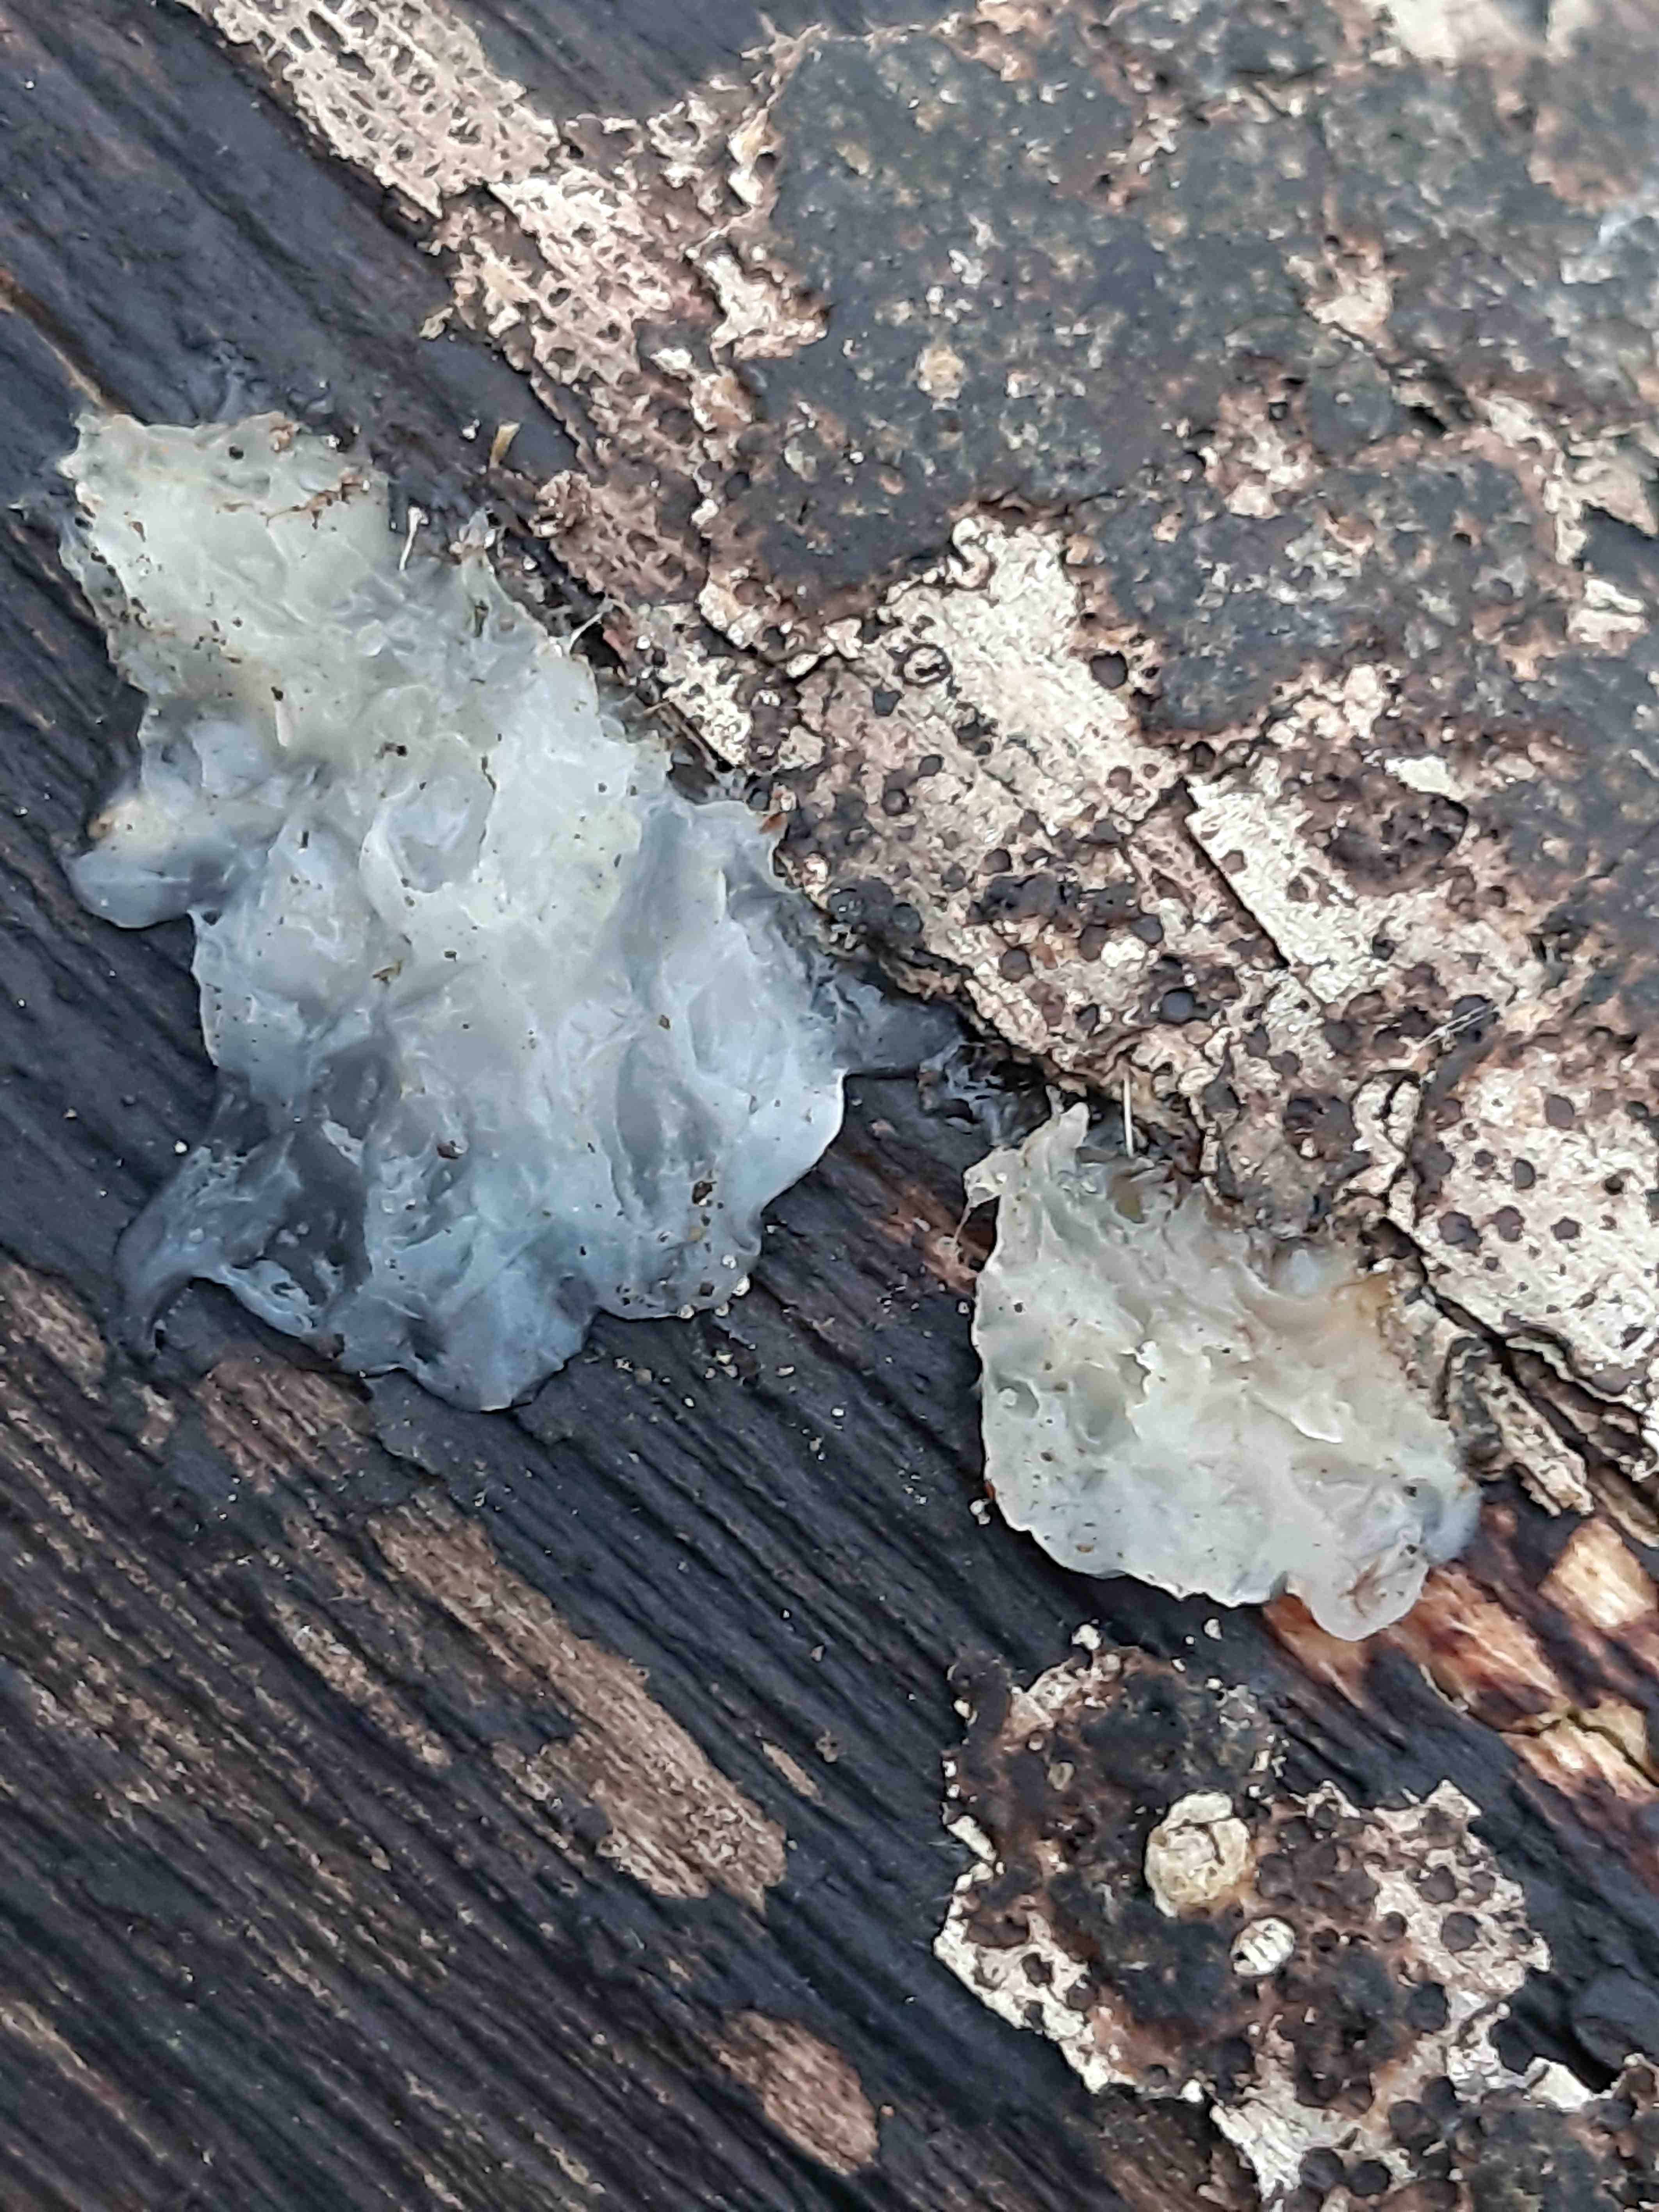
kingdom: Fungi
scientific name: Fungi
